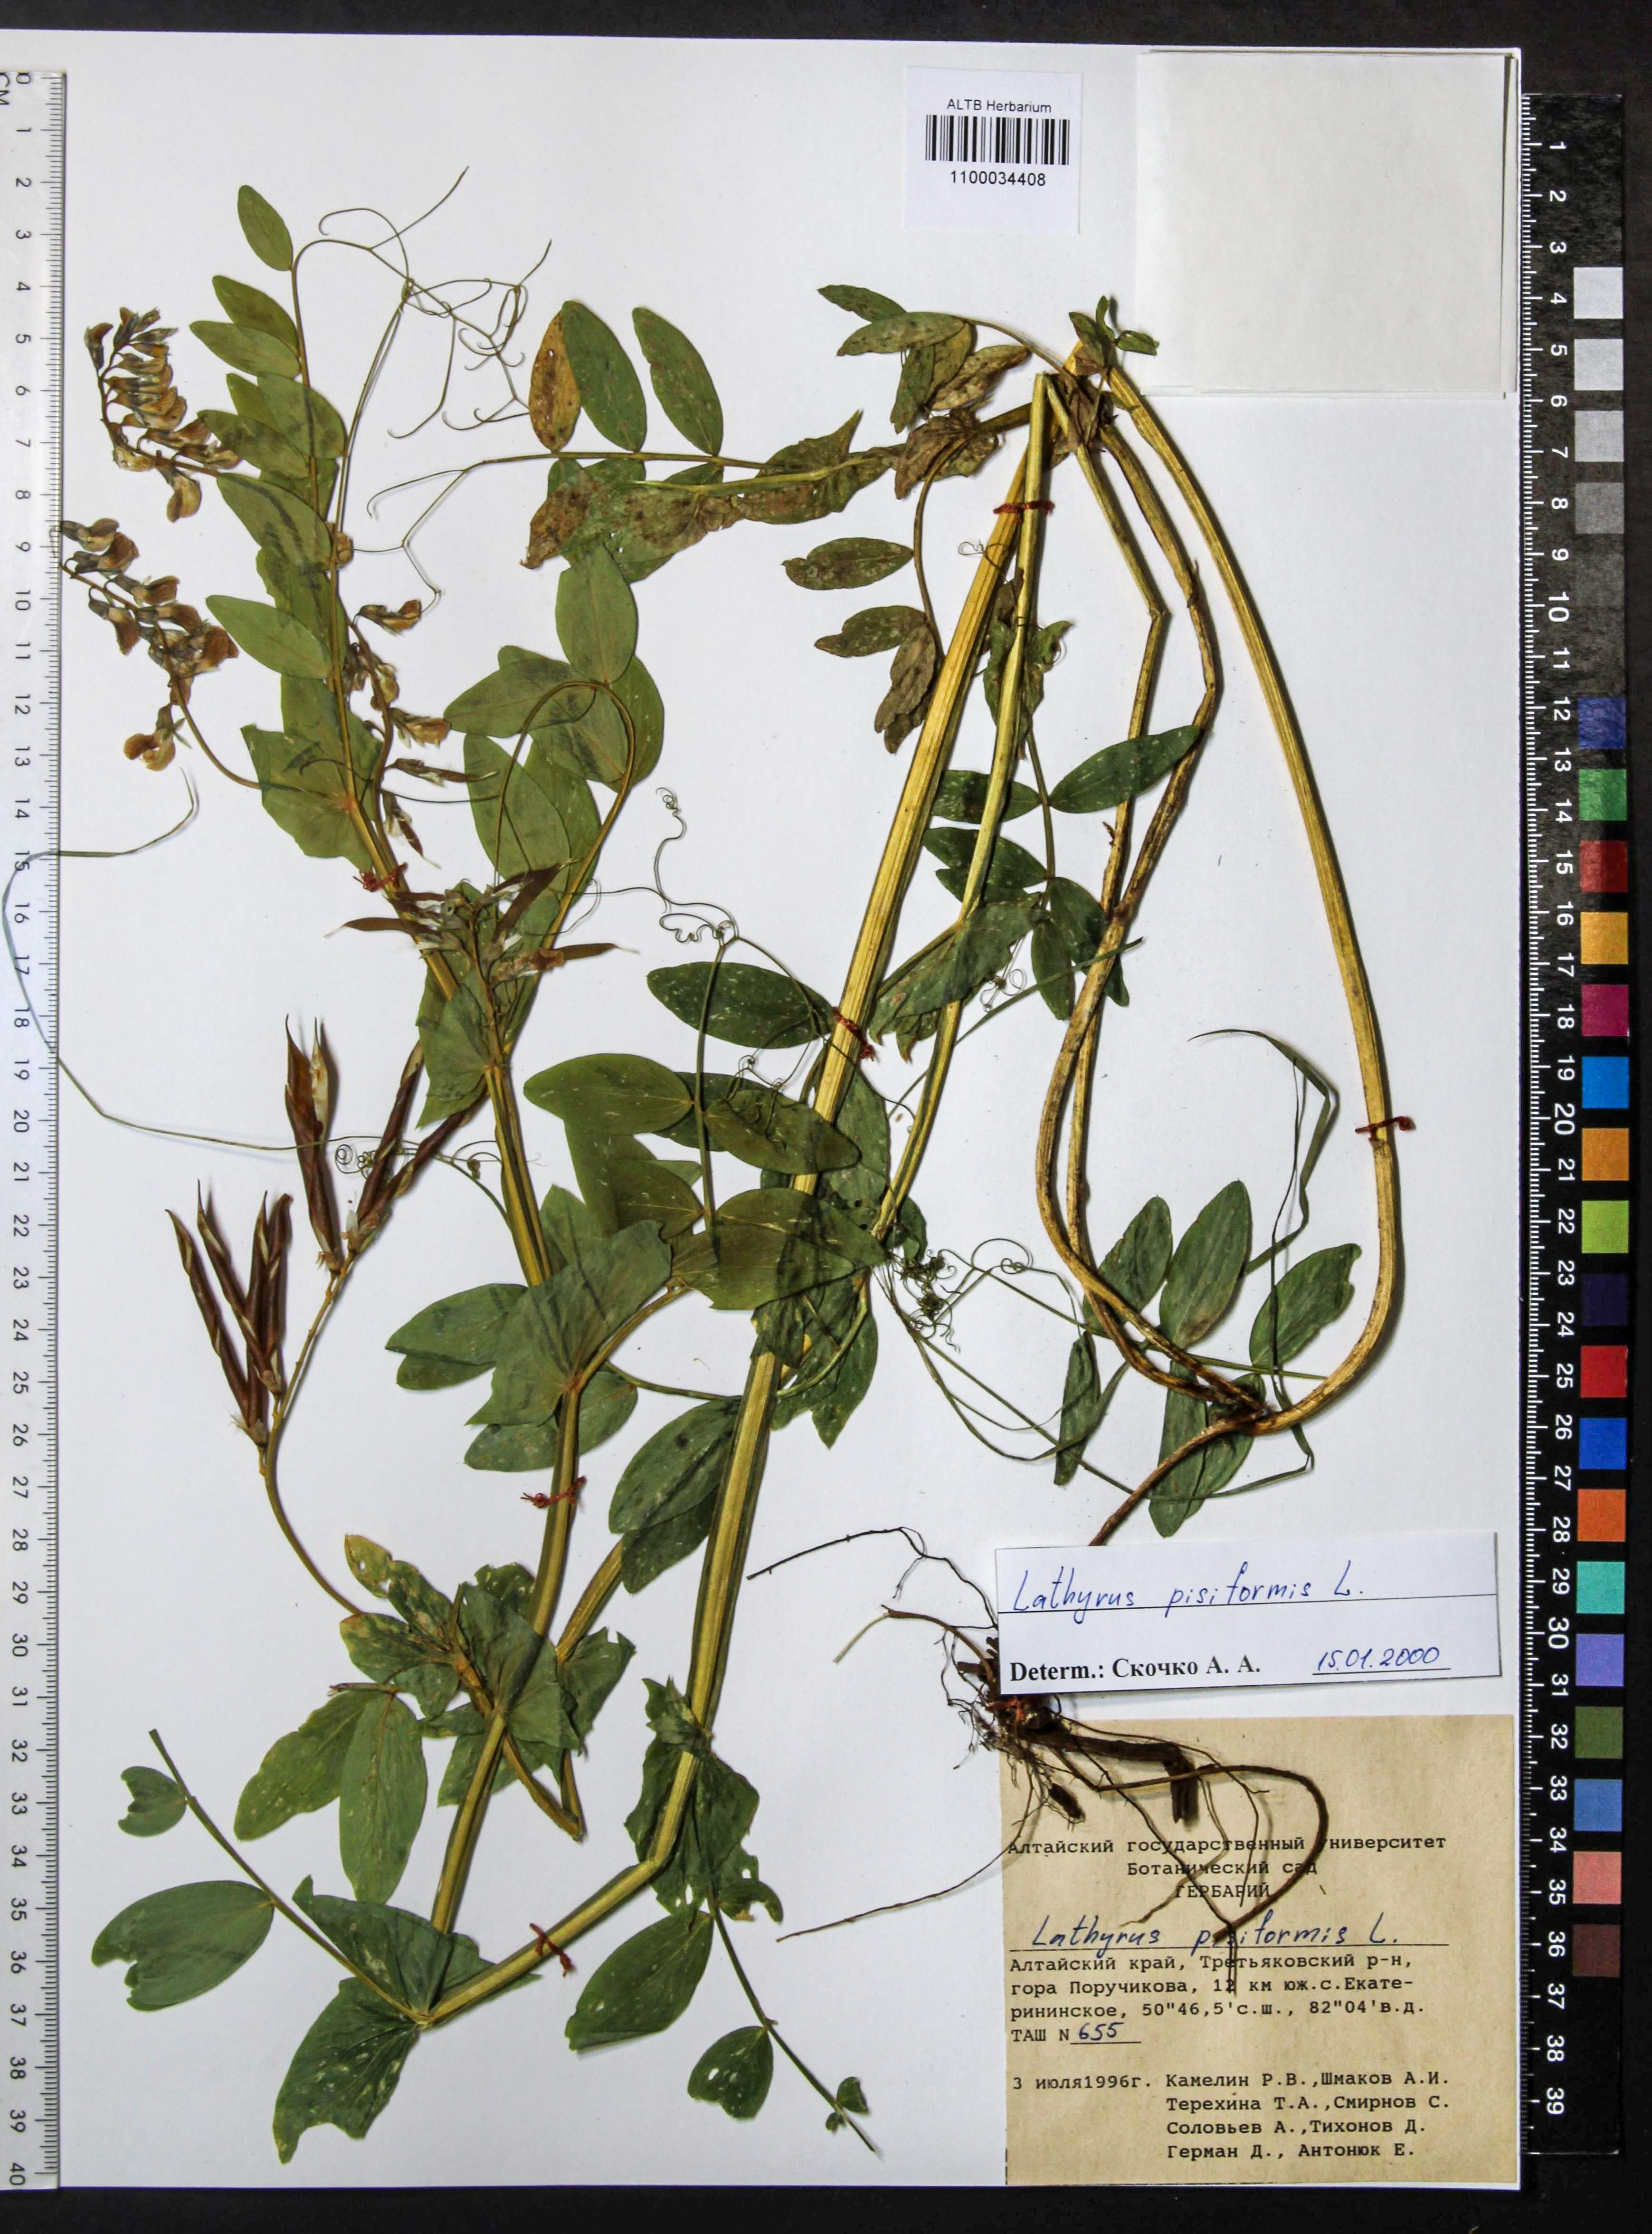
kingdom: Plantae
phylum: Tracheophyta
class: Magnoliopsida
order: Fabales
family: Fabaceae
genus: Lathyrus
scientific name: Lathyrus pisiformis
